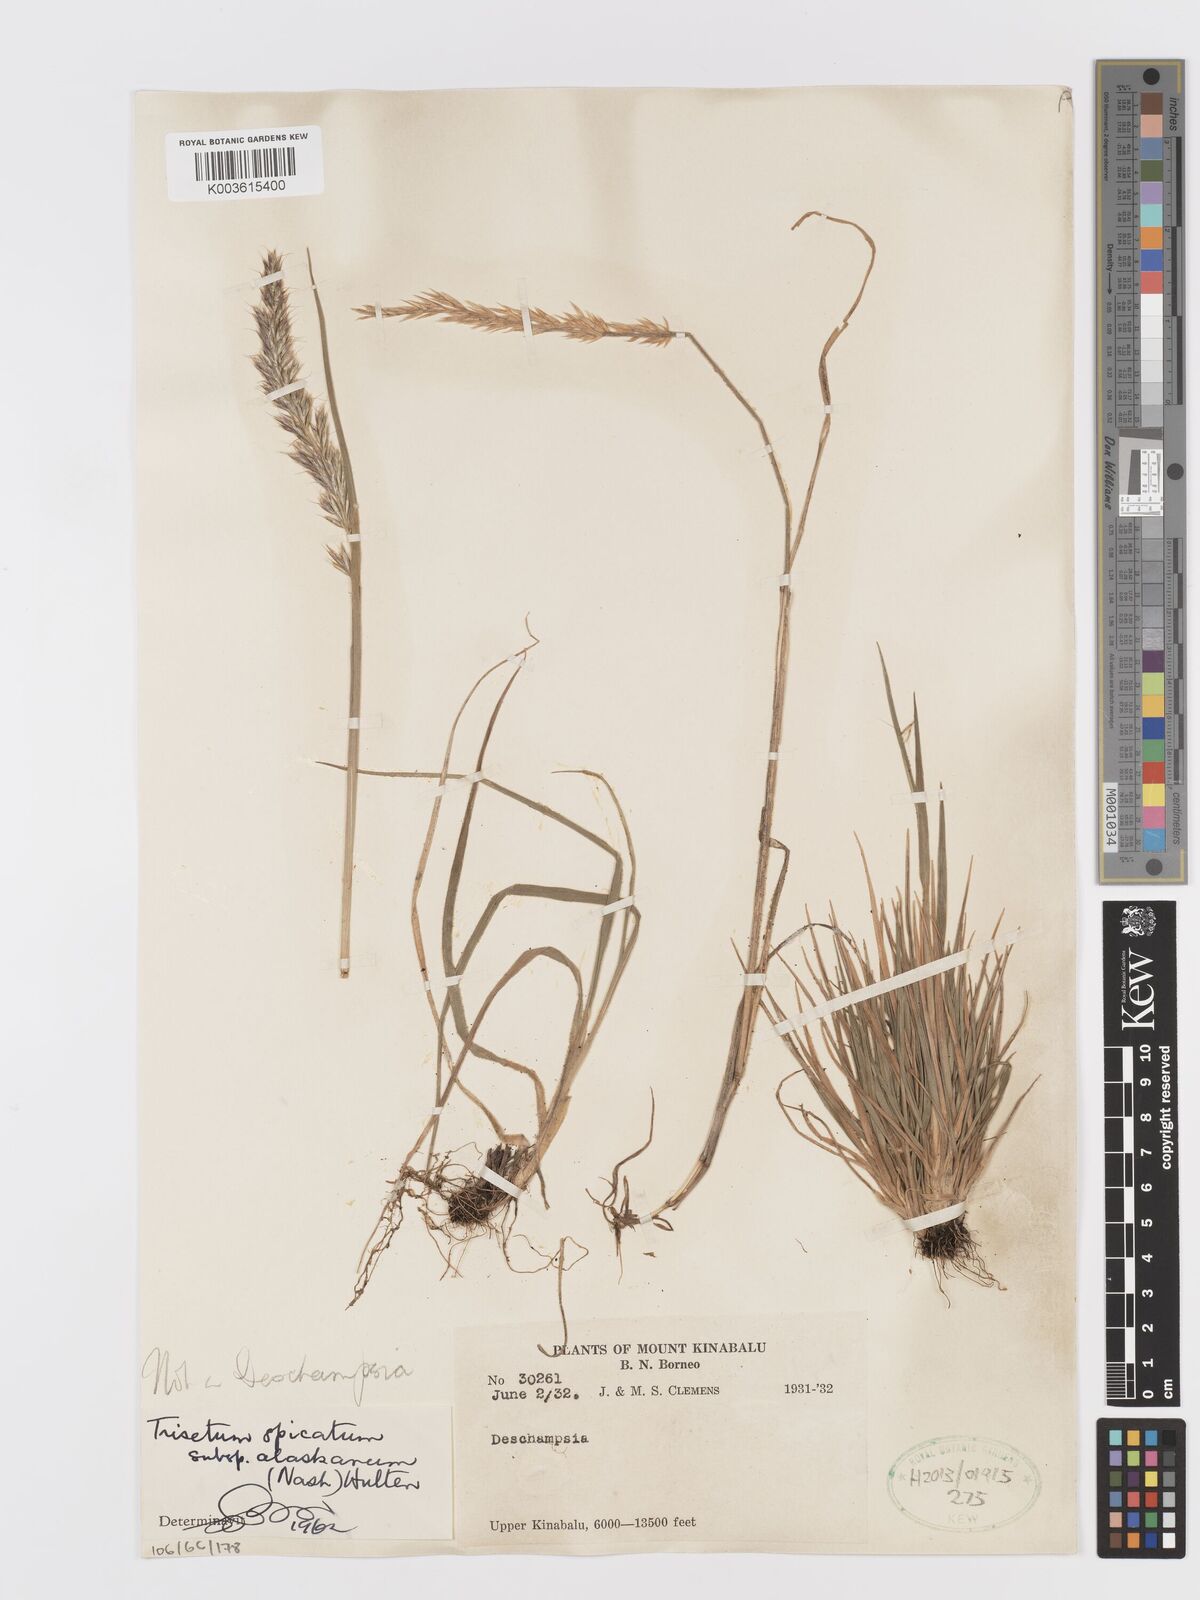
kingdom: Plantae
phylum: Tracheophyta
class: Liliopsida
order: Poales
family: Poaceae
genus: Koeleria
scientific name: Koeleria spicata
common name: Mountain trisetum
